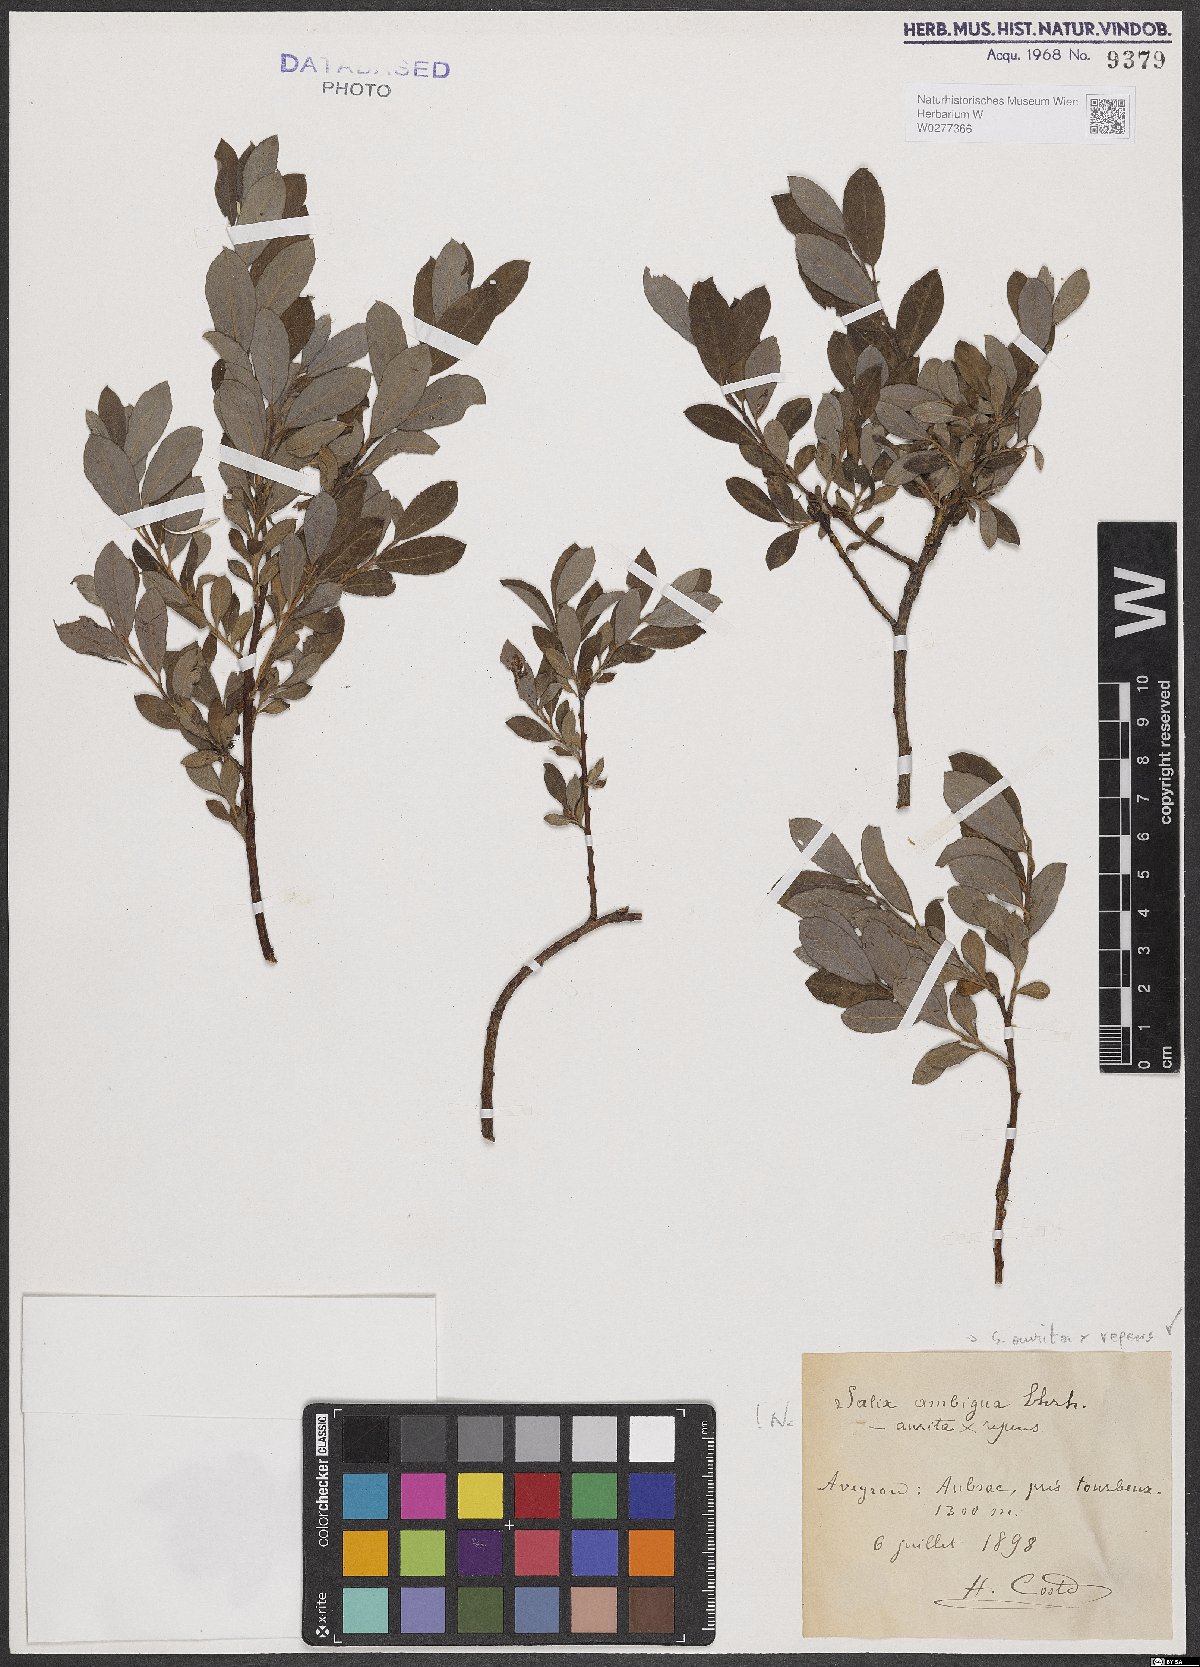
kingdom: Plantae
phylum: Tracheophyta
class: Magnoliopsida
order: Malpighiales
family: Salicaceae
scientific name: Salicaceae
